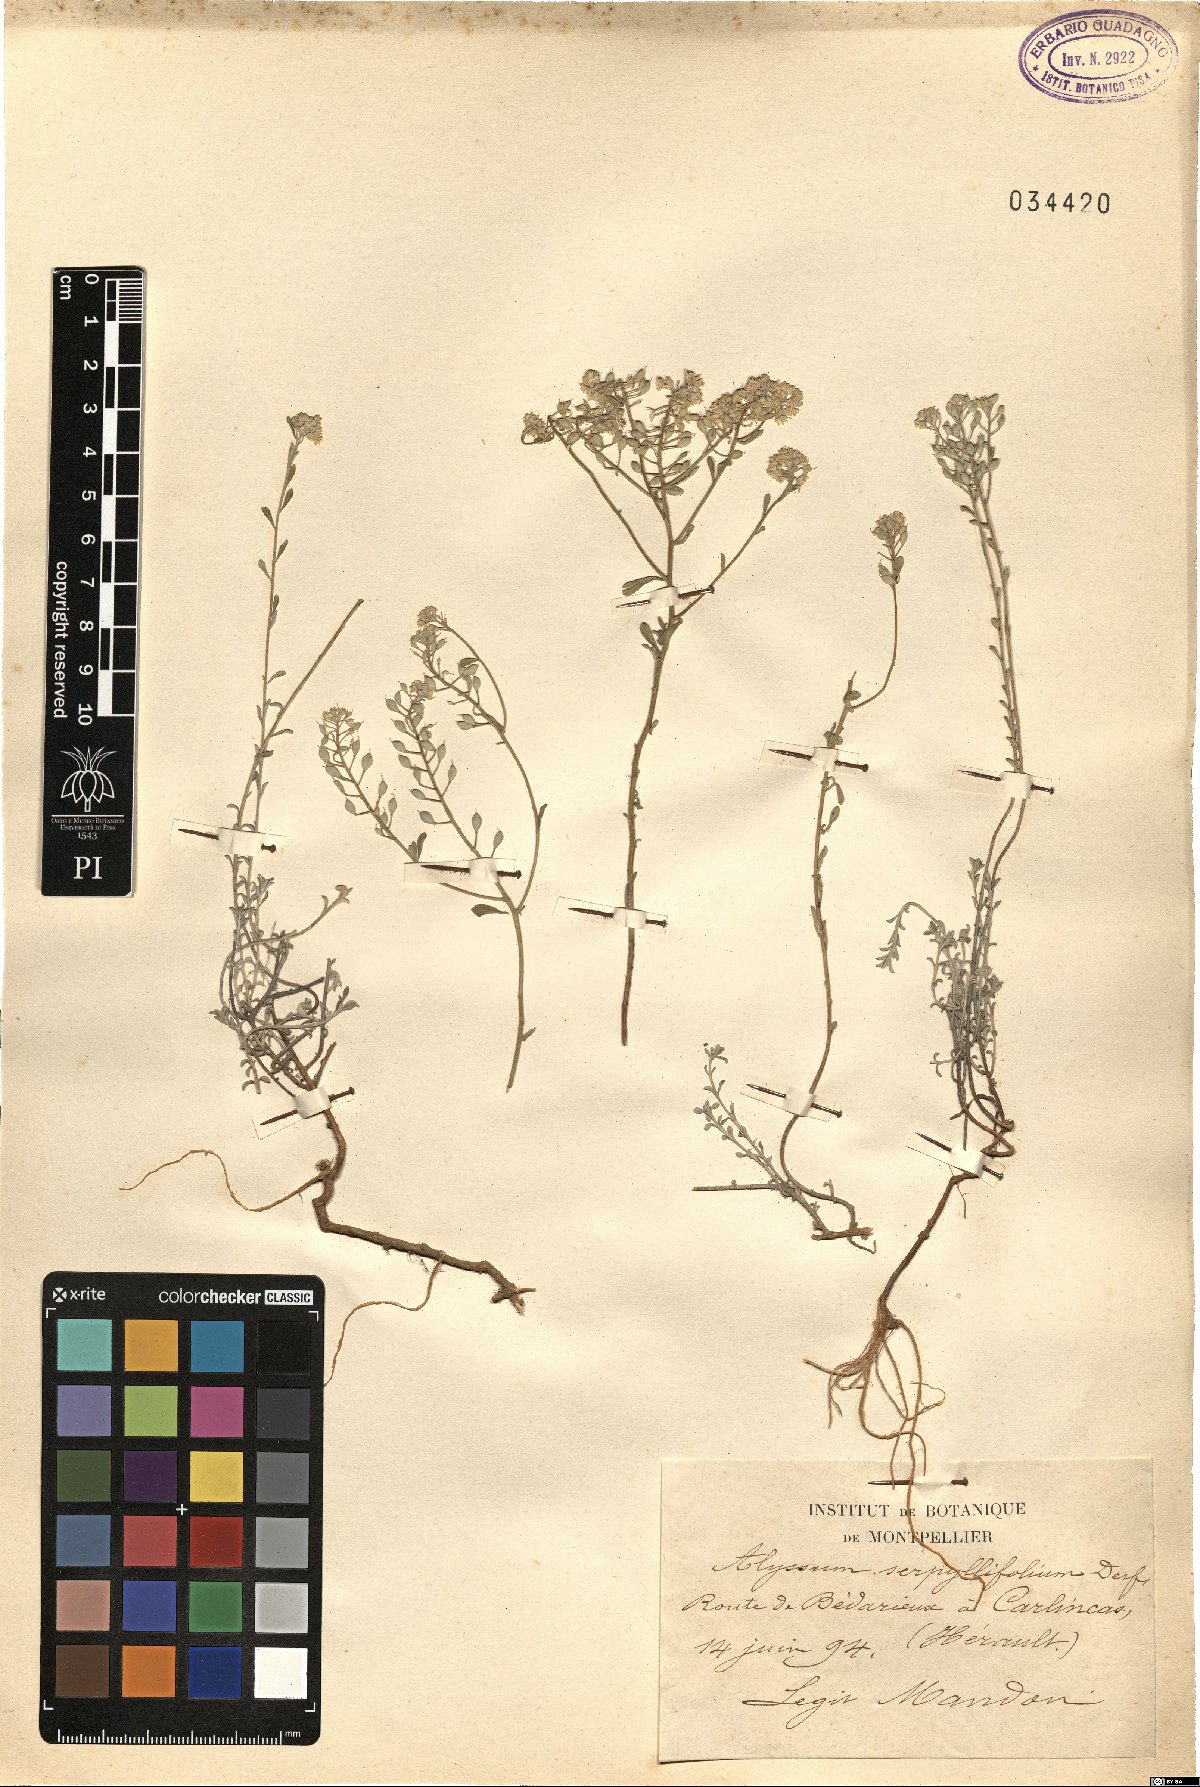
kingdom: Plantae
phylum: Tracheophyta
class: Magnoliopsida
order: Brassicales
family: Brassicaceae
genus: Odontarrhena
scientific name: Odontarrhena serpyllifolia
